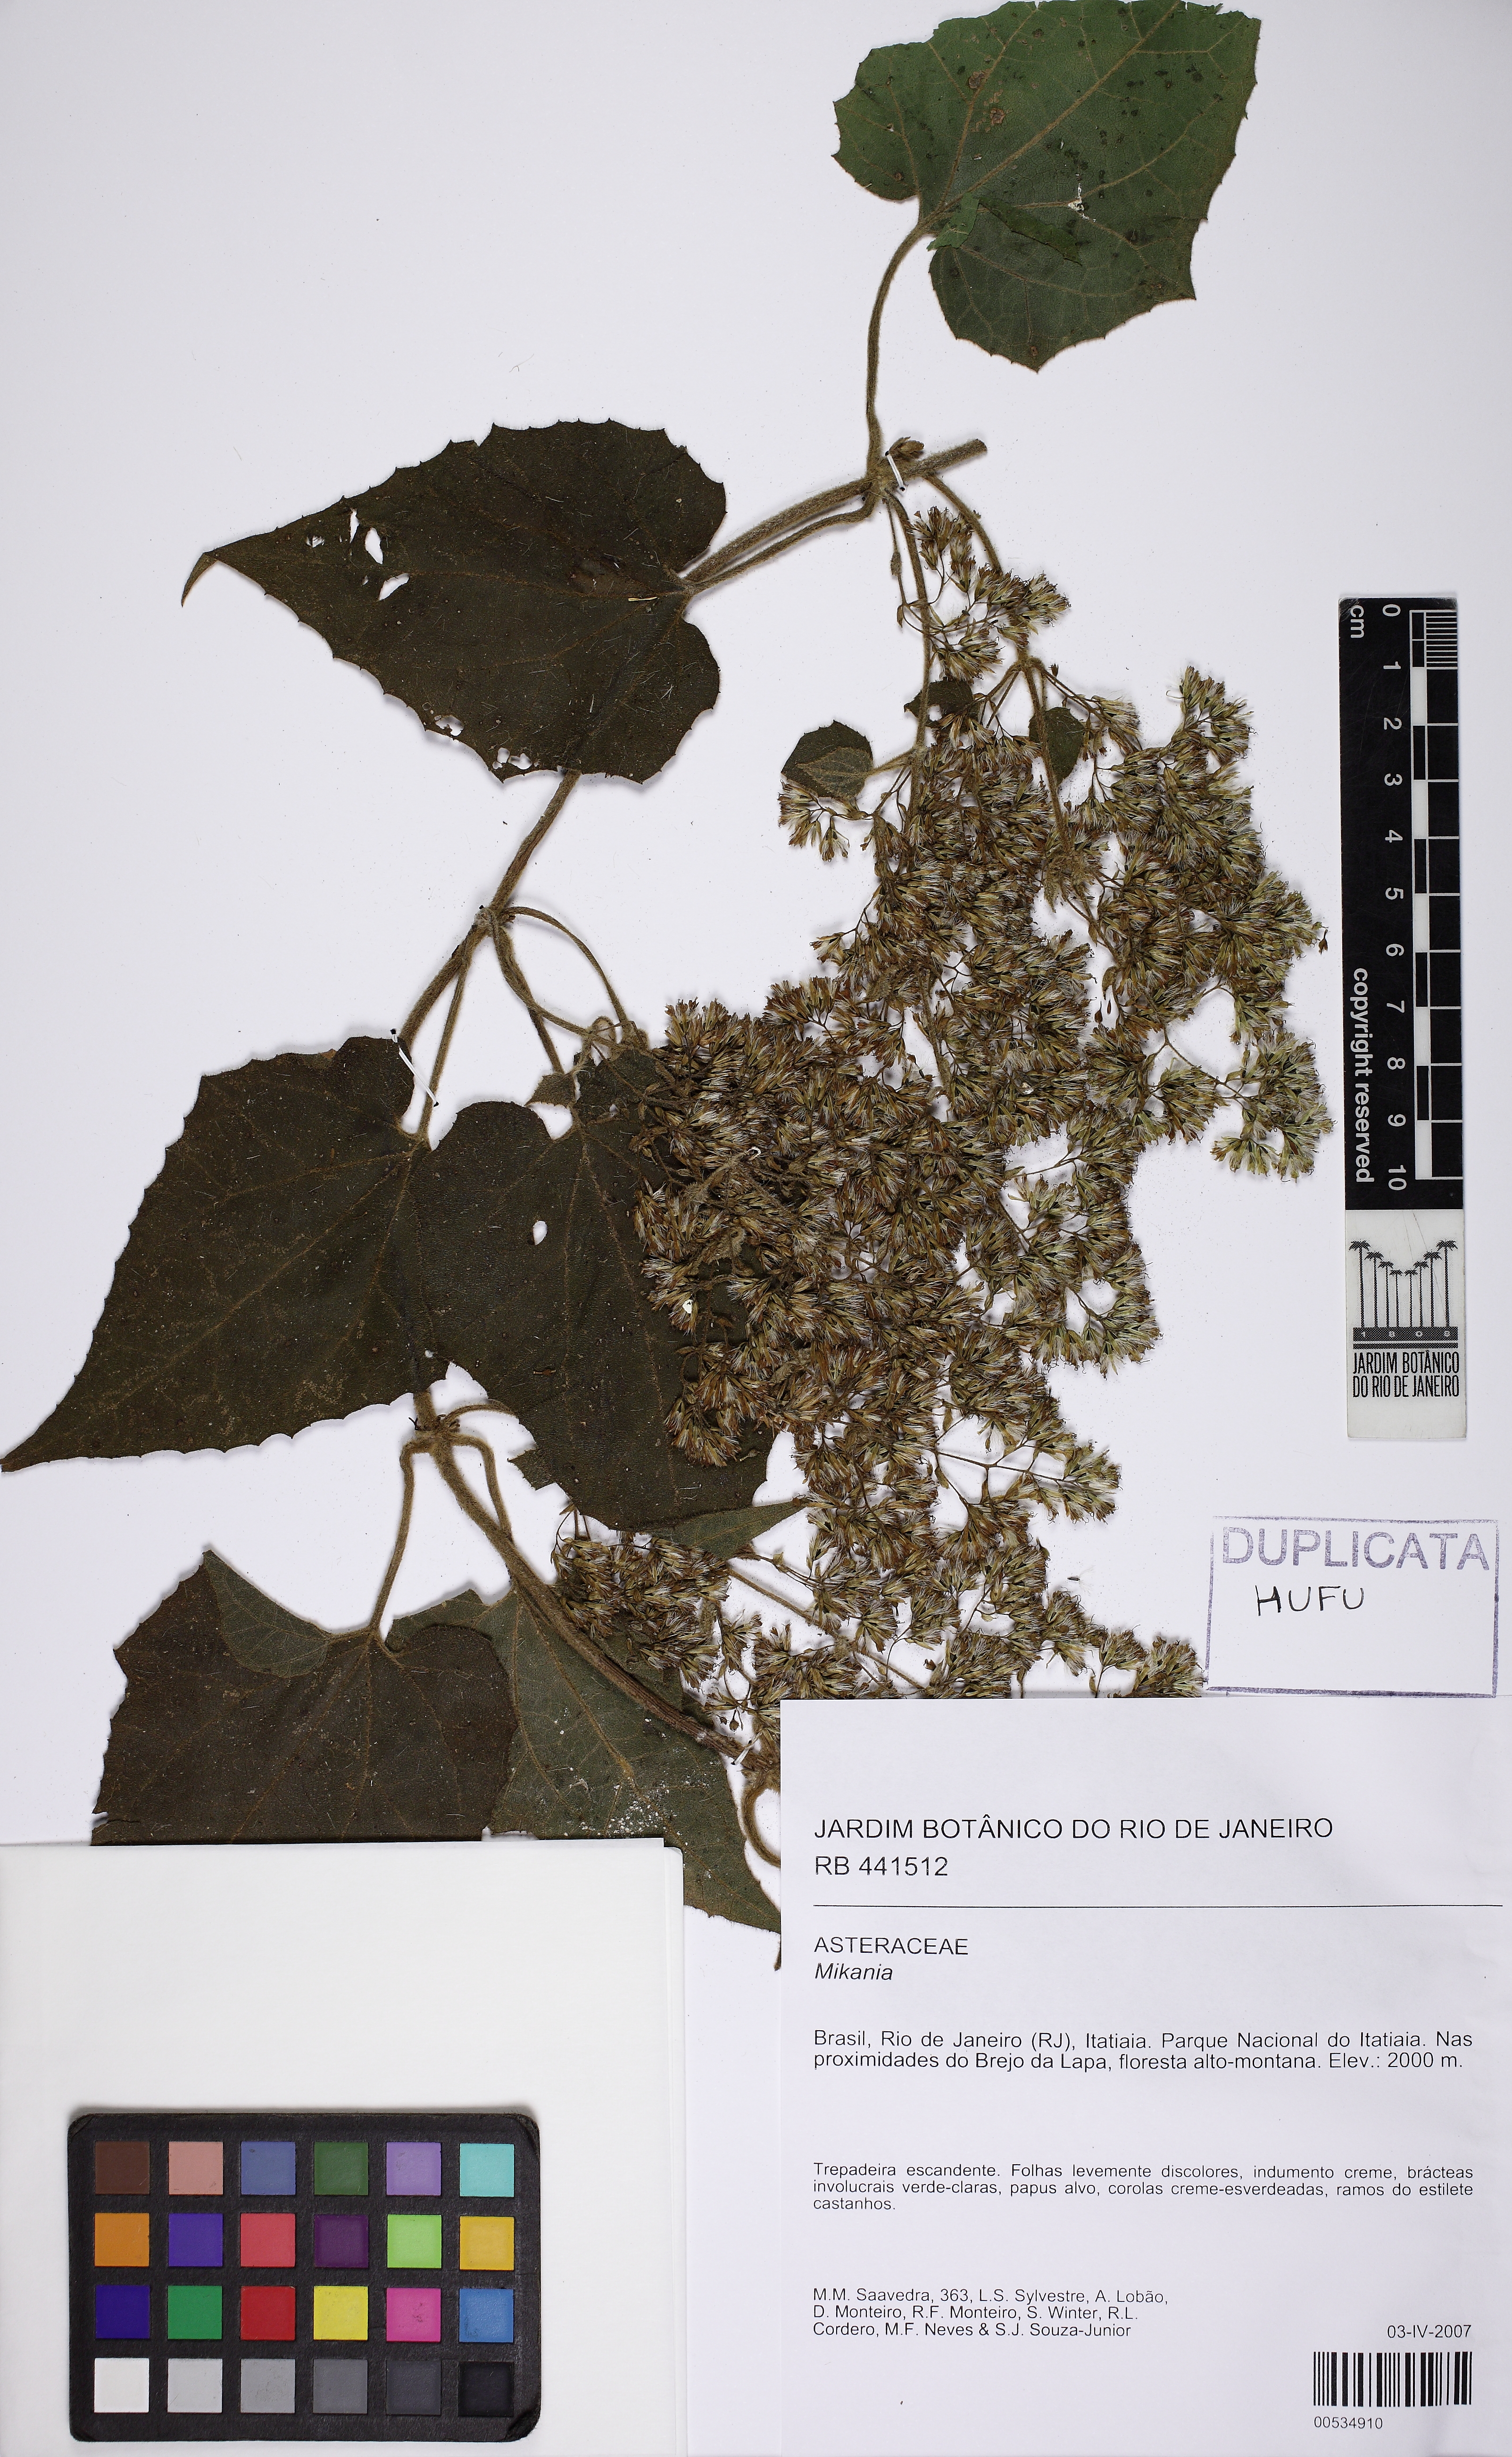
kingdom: Plantae
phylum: Tracheophyta
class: Magnoliopsida
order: Asterales
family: Asteraceae
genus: Mikania
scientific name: Mikania banisteriae
